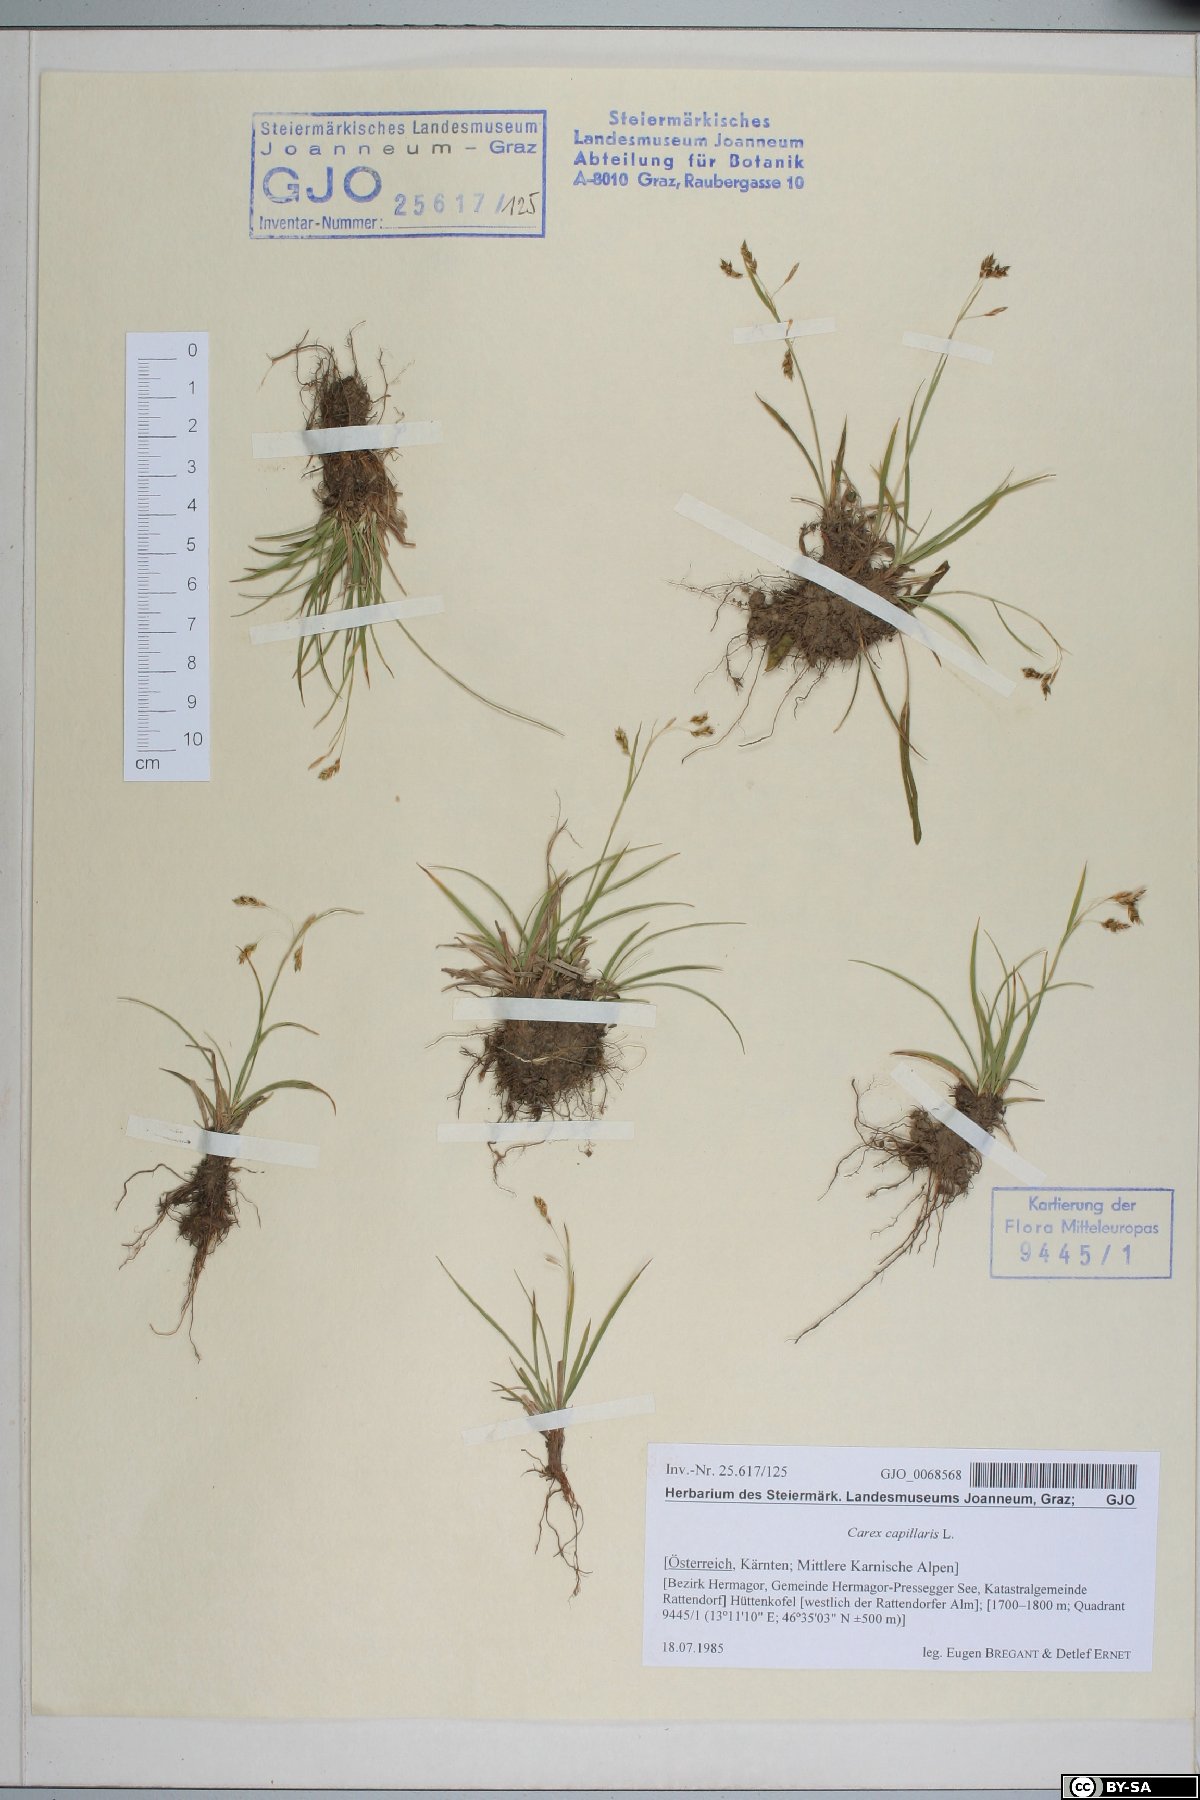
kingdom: Plantae
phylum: Tracheophyta
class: Liliopsida
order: Poales
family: Cyperaceae
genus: Carex
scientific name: Carex capillaris
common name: Hair sedge
